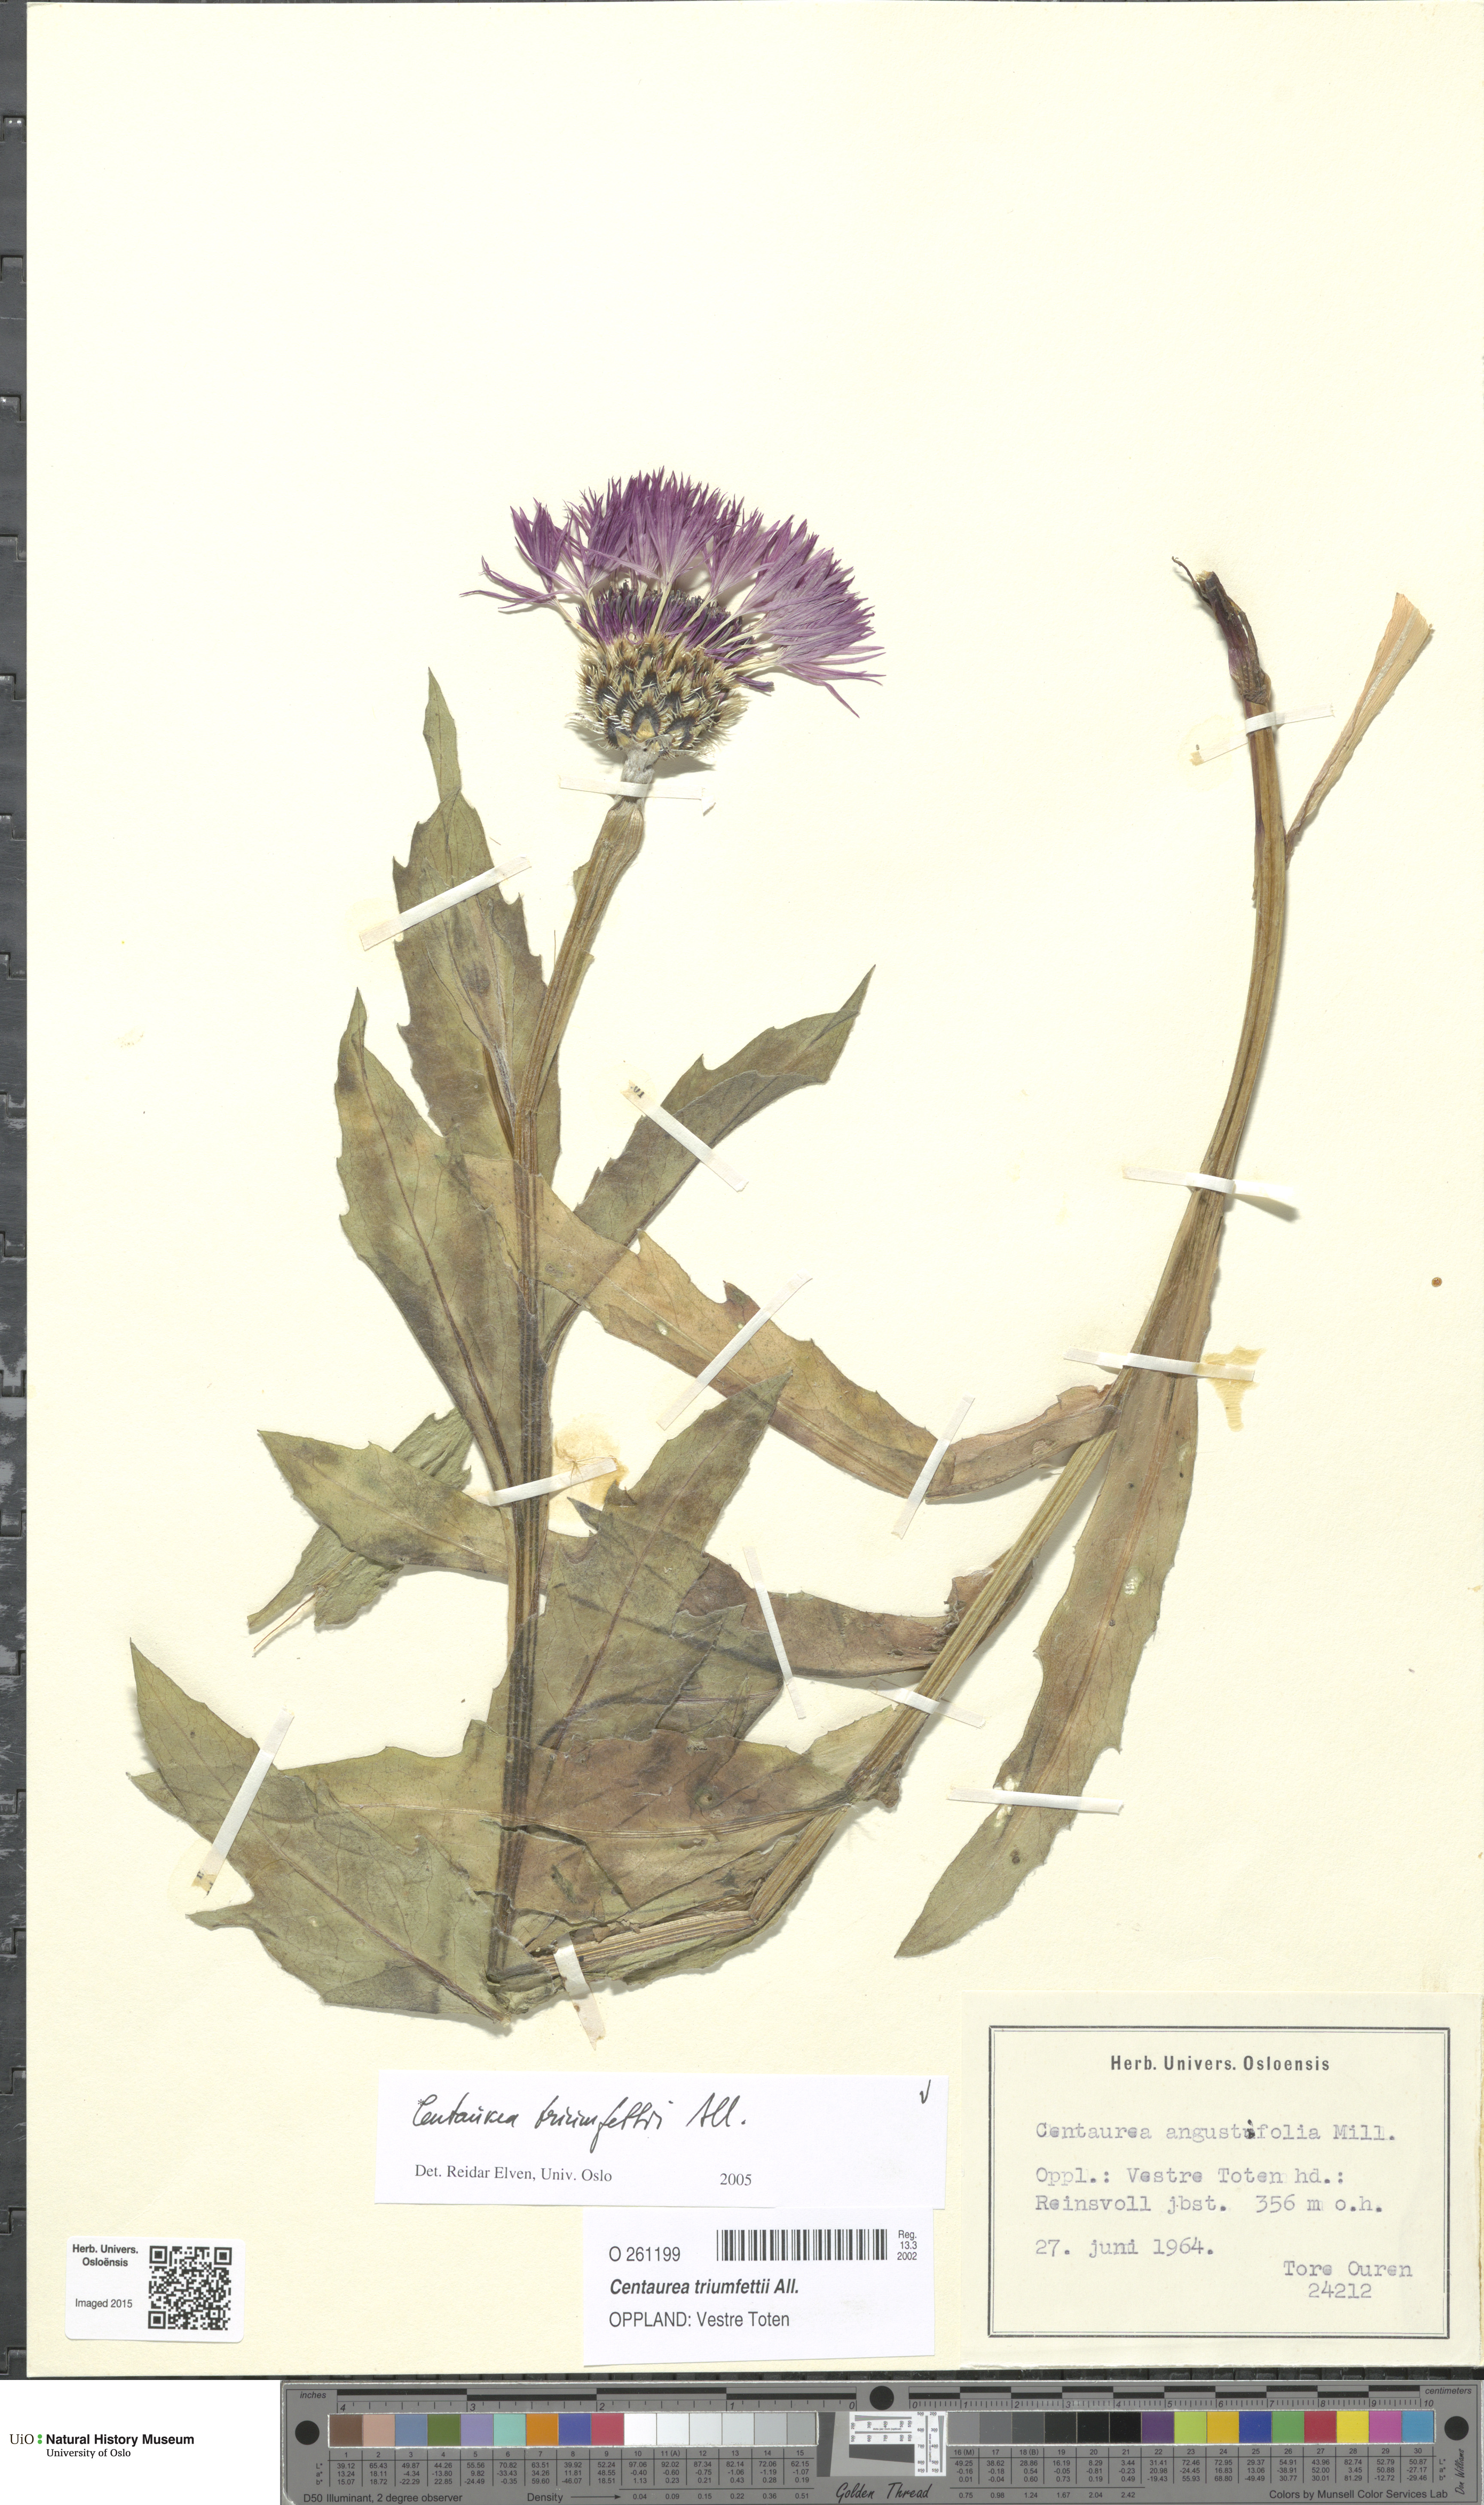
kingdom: Plantae
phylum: Tracheophyta
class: Magnoliopsida
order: Asterales
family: Asteraceae
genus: Centaurea
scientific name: Centaurea triumfettii
